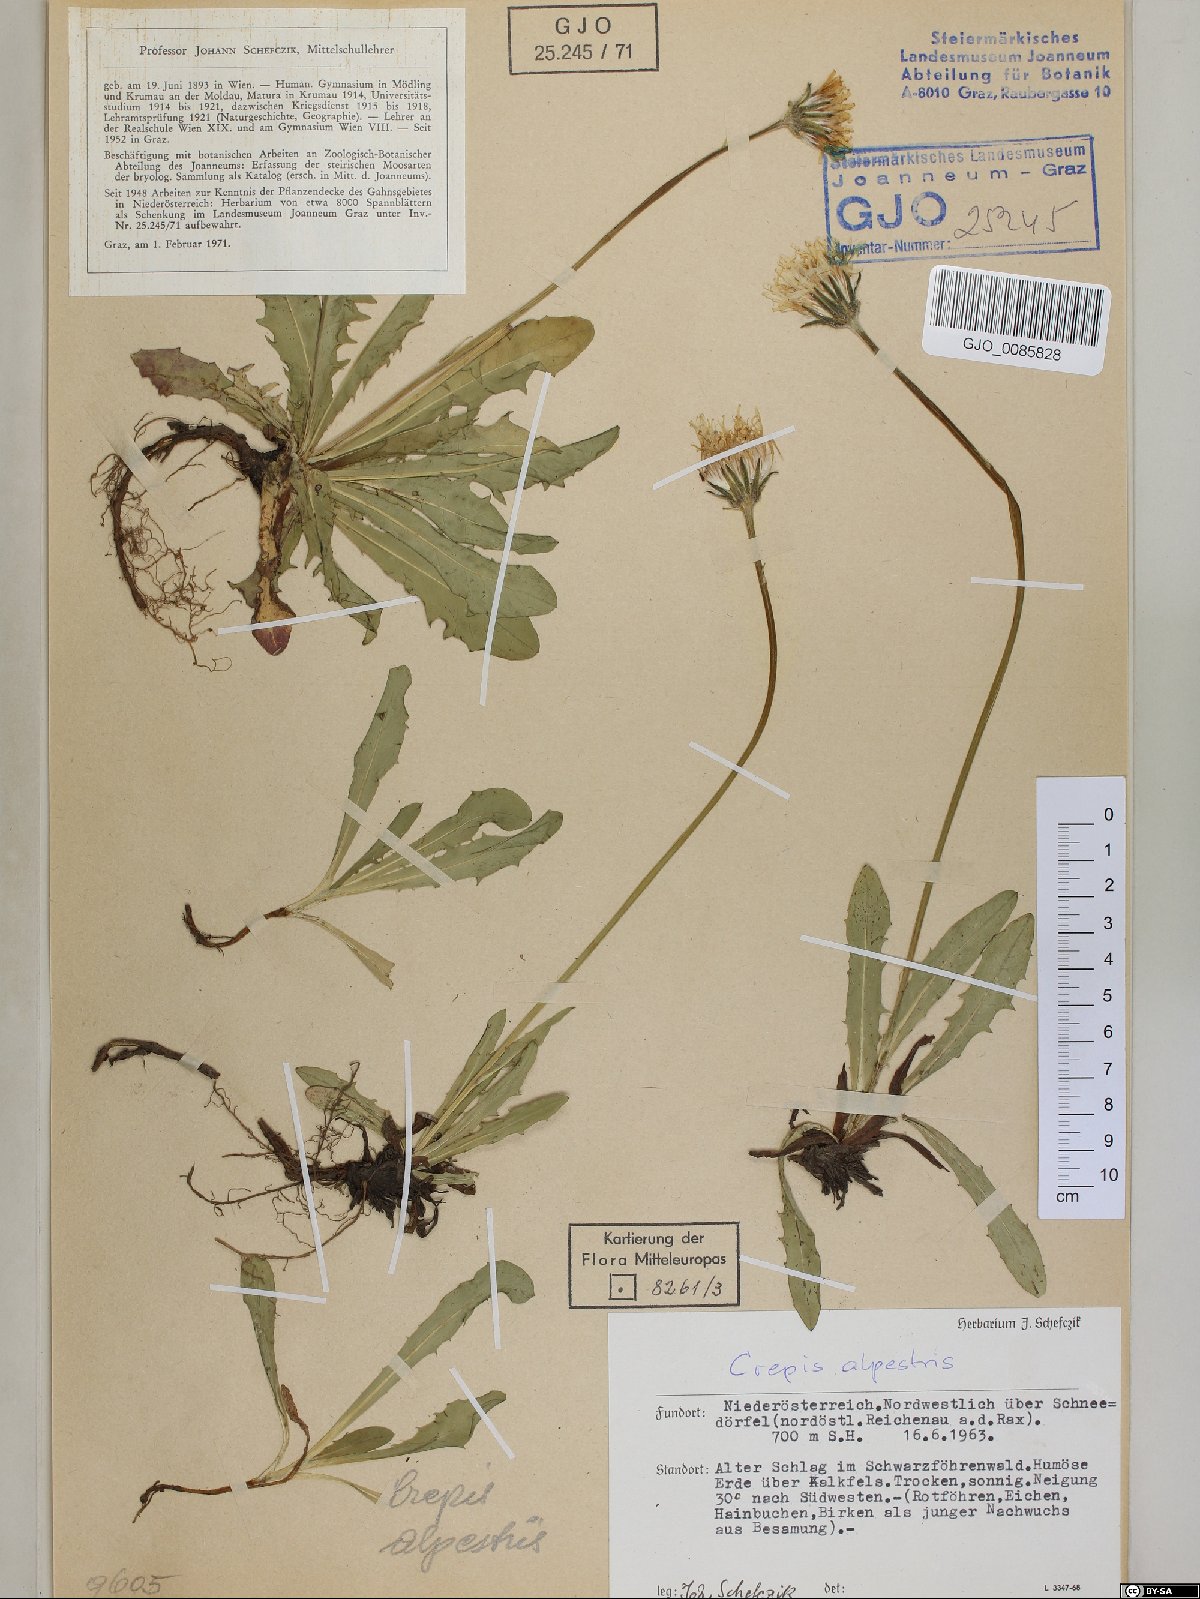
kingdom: Plantae
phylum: Tracheophyta
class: Magnoliopsida
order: Asterales
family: Asteraceae
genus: Crepis
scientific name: Crepis alpestris
